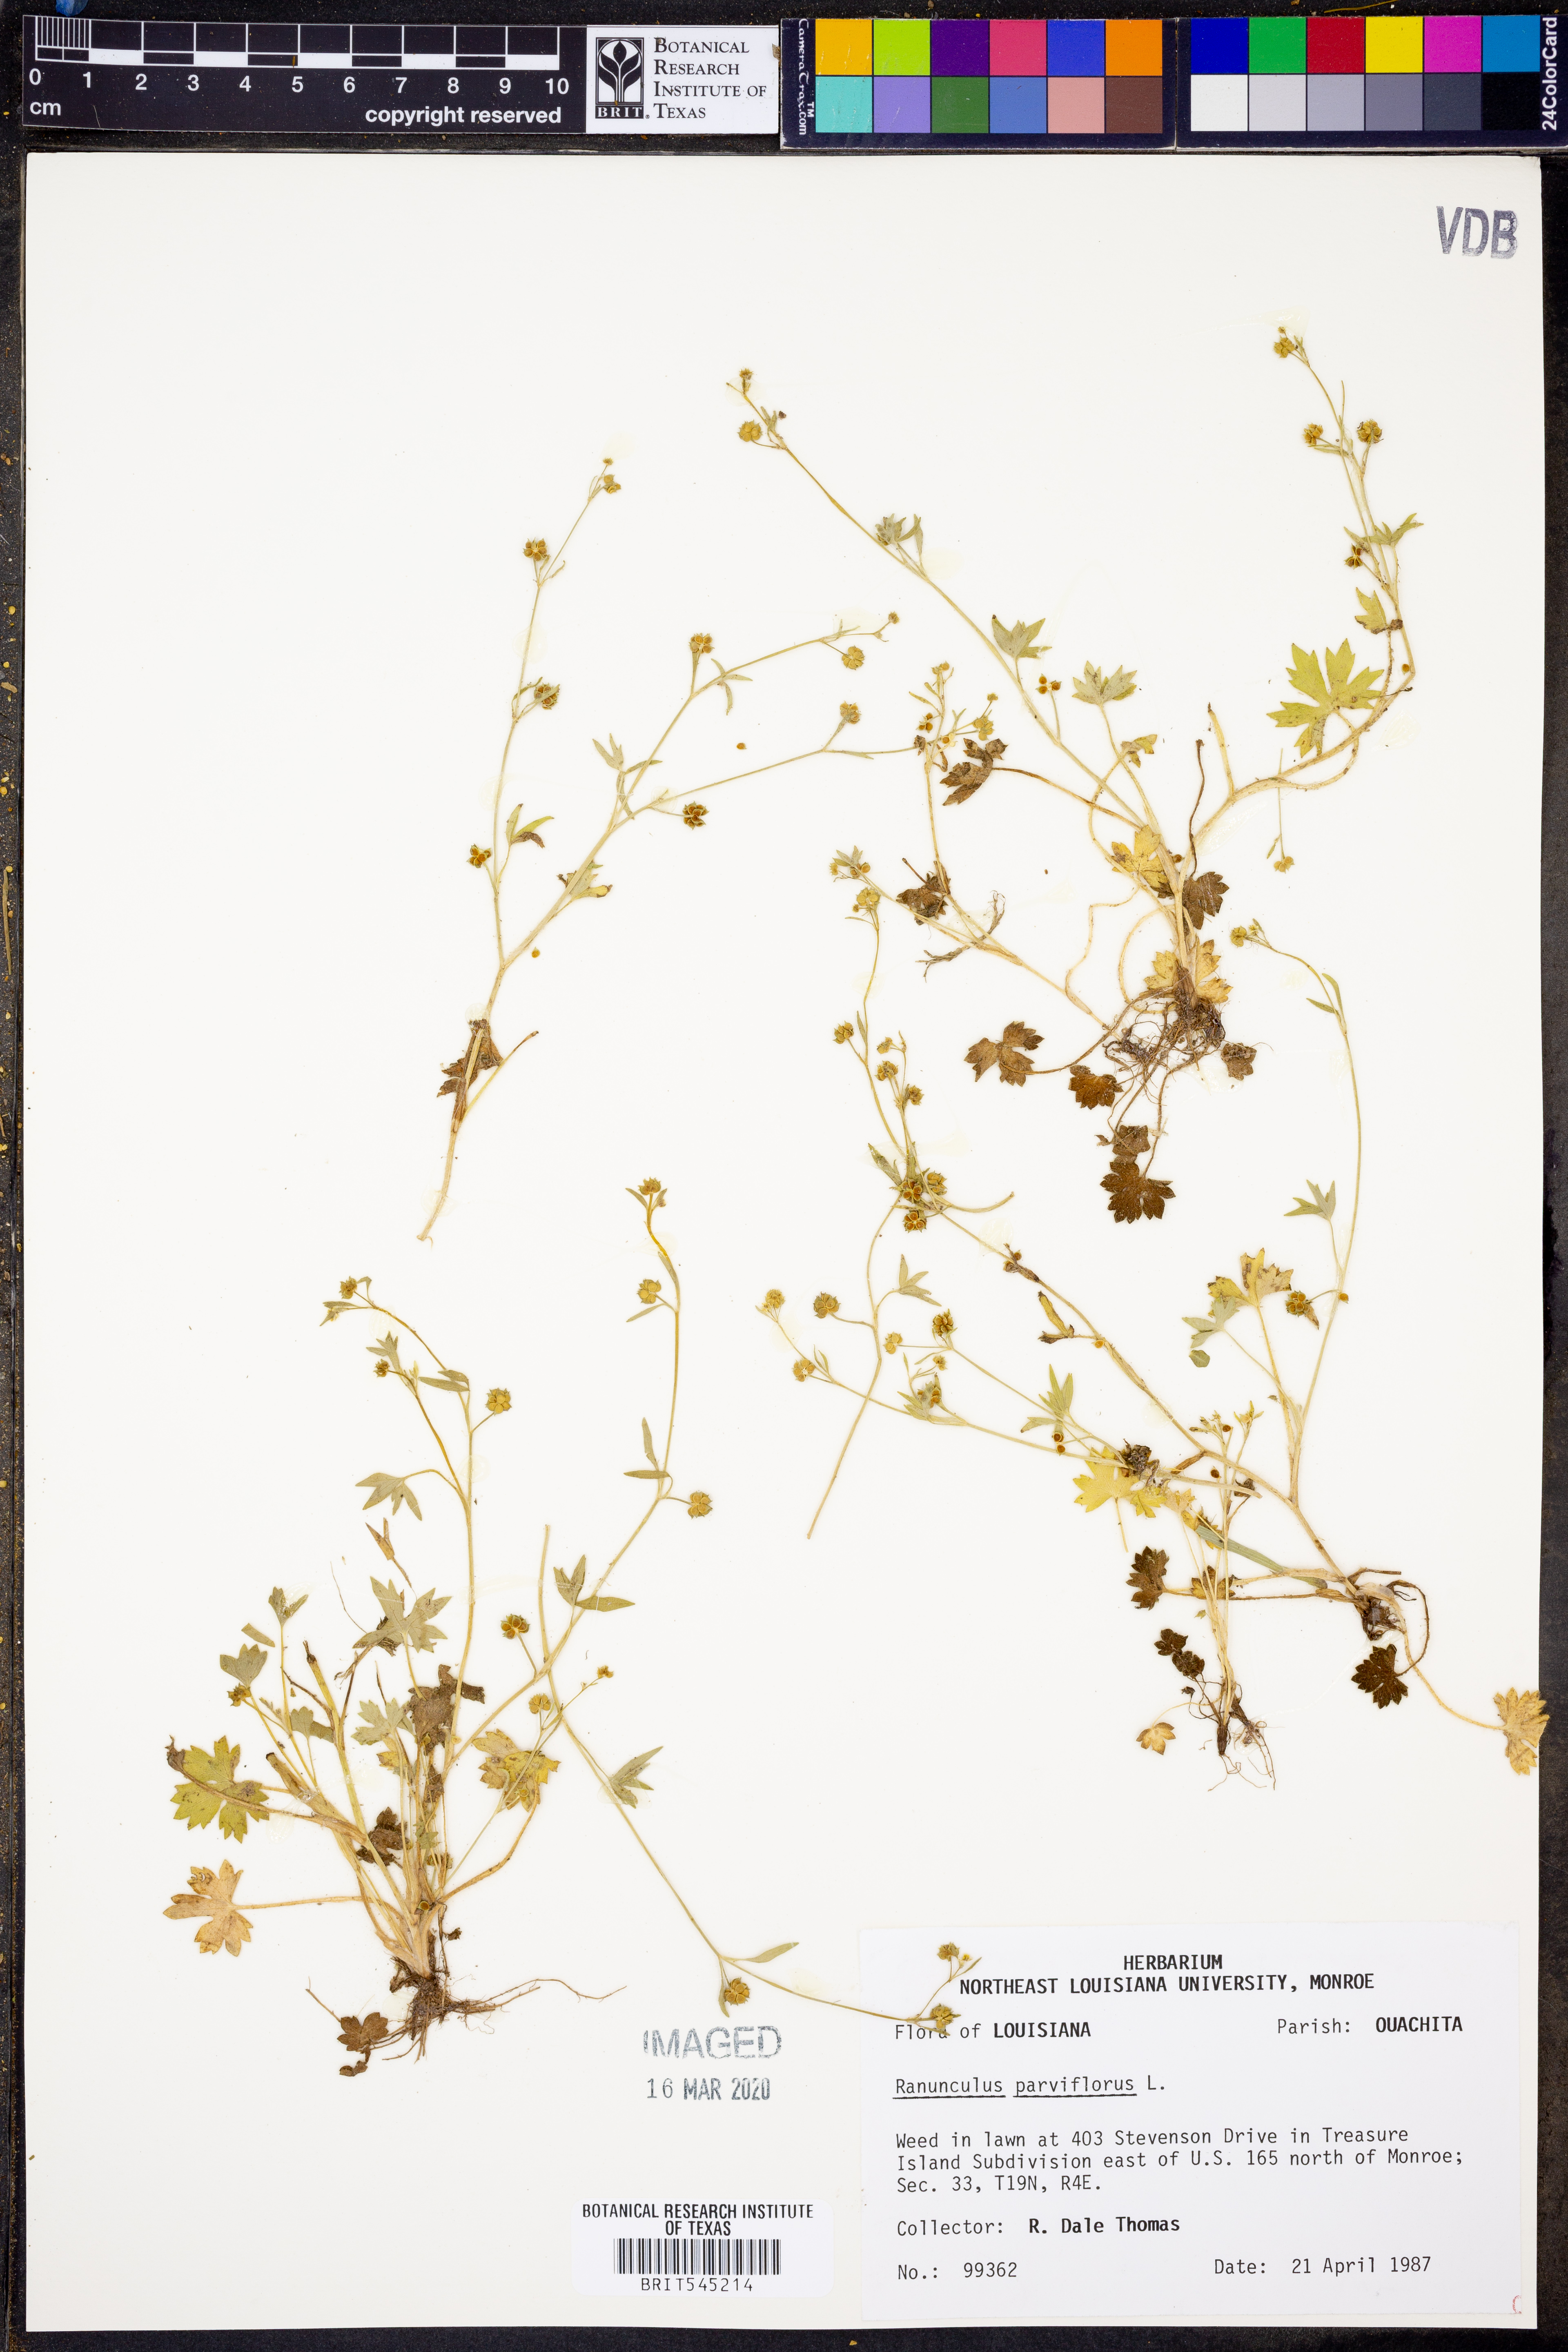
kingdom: Plantae
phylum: Tracheophyta
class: Magnoliopsida
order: Ranunculales
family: Ranunculaceae
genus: Ranunculus
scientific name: Ranunculus parviflorus
